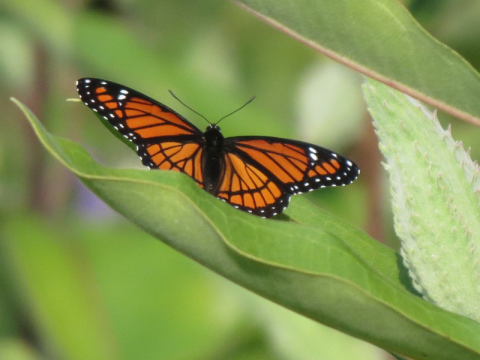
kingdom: Animalia
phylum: Arthropoda
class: Insecta
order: Lepidoptera
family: Nymphalidae
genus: Limenitis
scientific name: Limenitis archippus
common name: Viceroy
